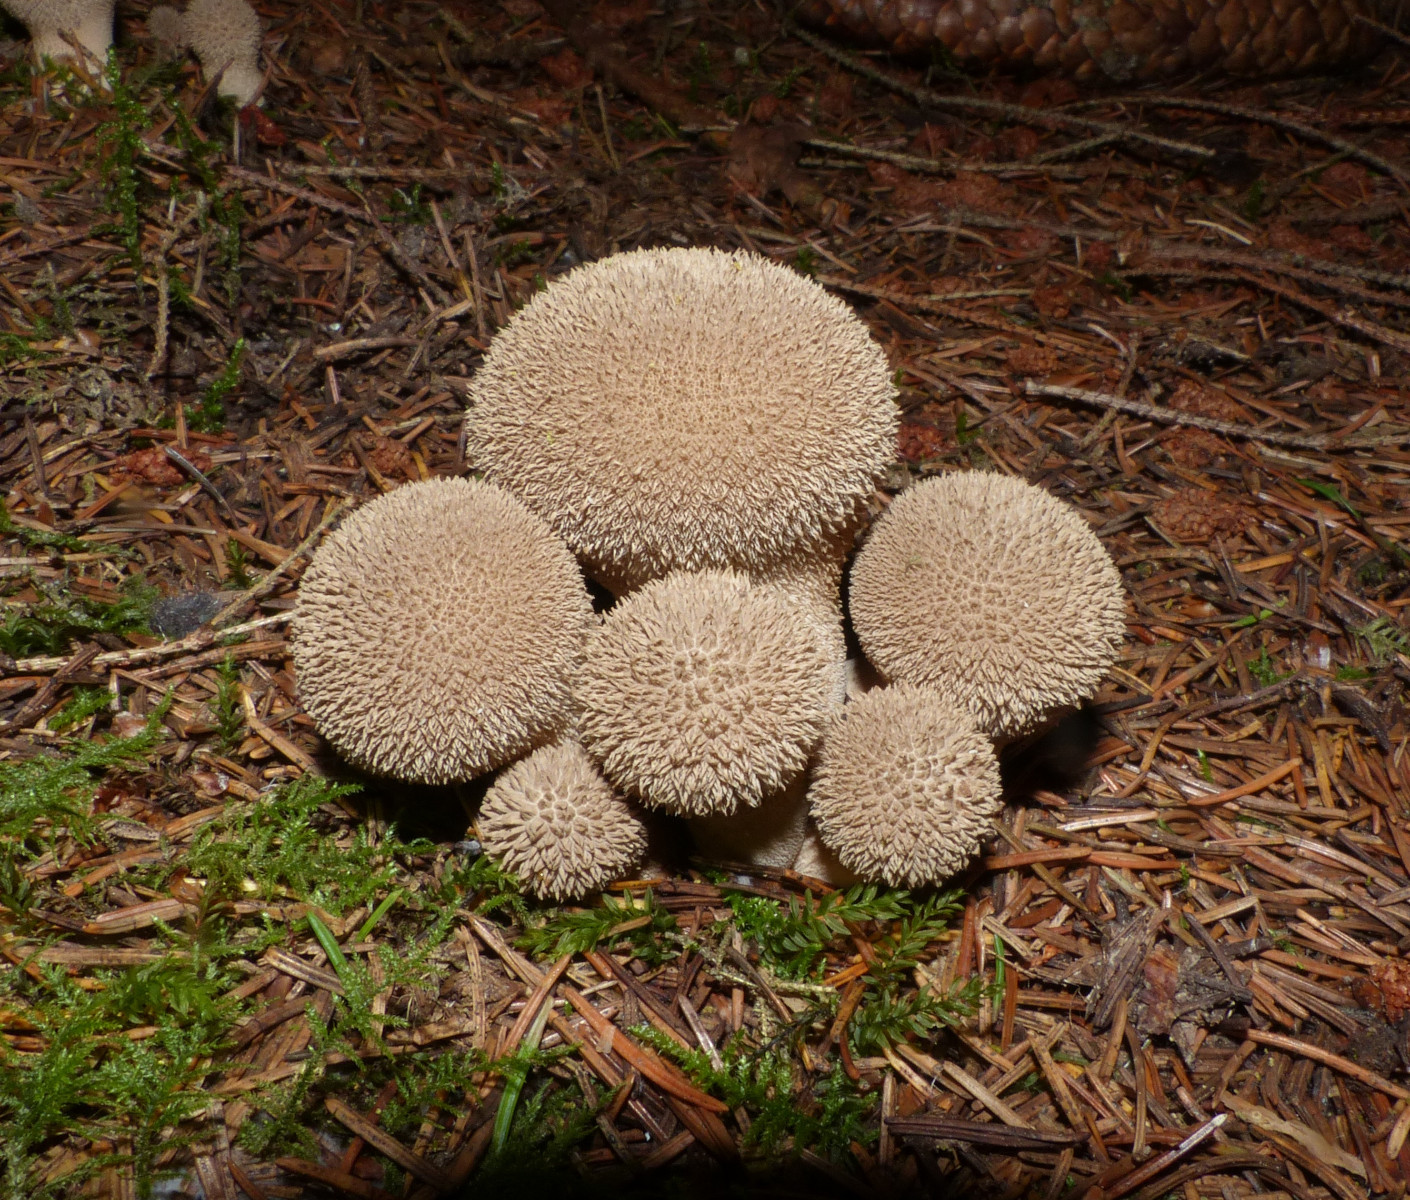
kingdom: Fungi
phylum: Basidiomycota
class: Agaricomycetes
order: Agaricales
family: Agaricaceae
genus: Lycoperdon
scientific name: Lycoperdon
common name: støvbold
